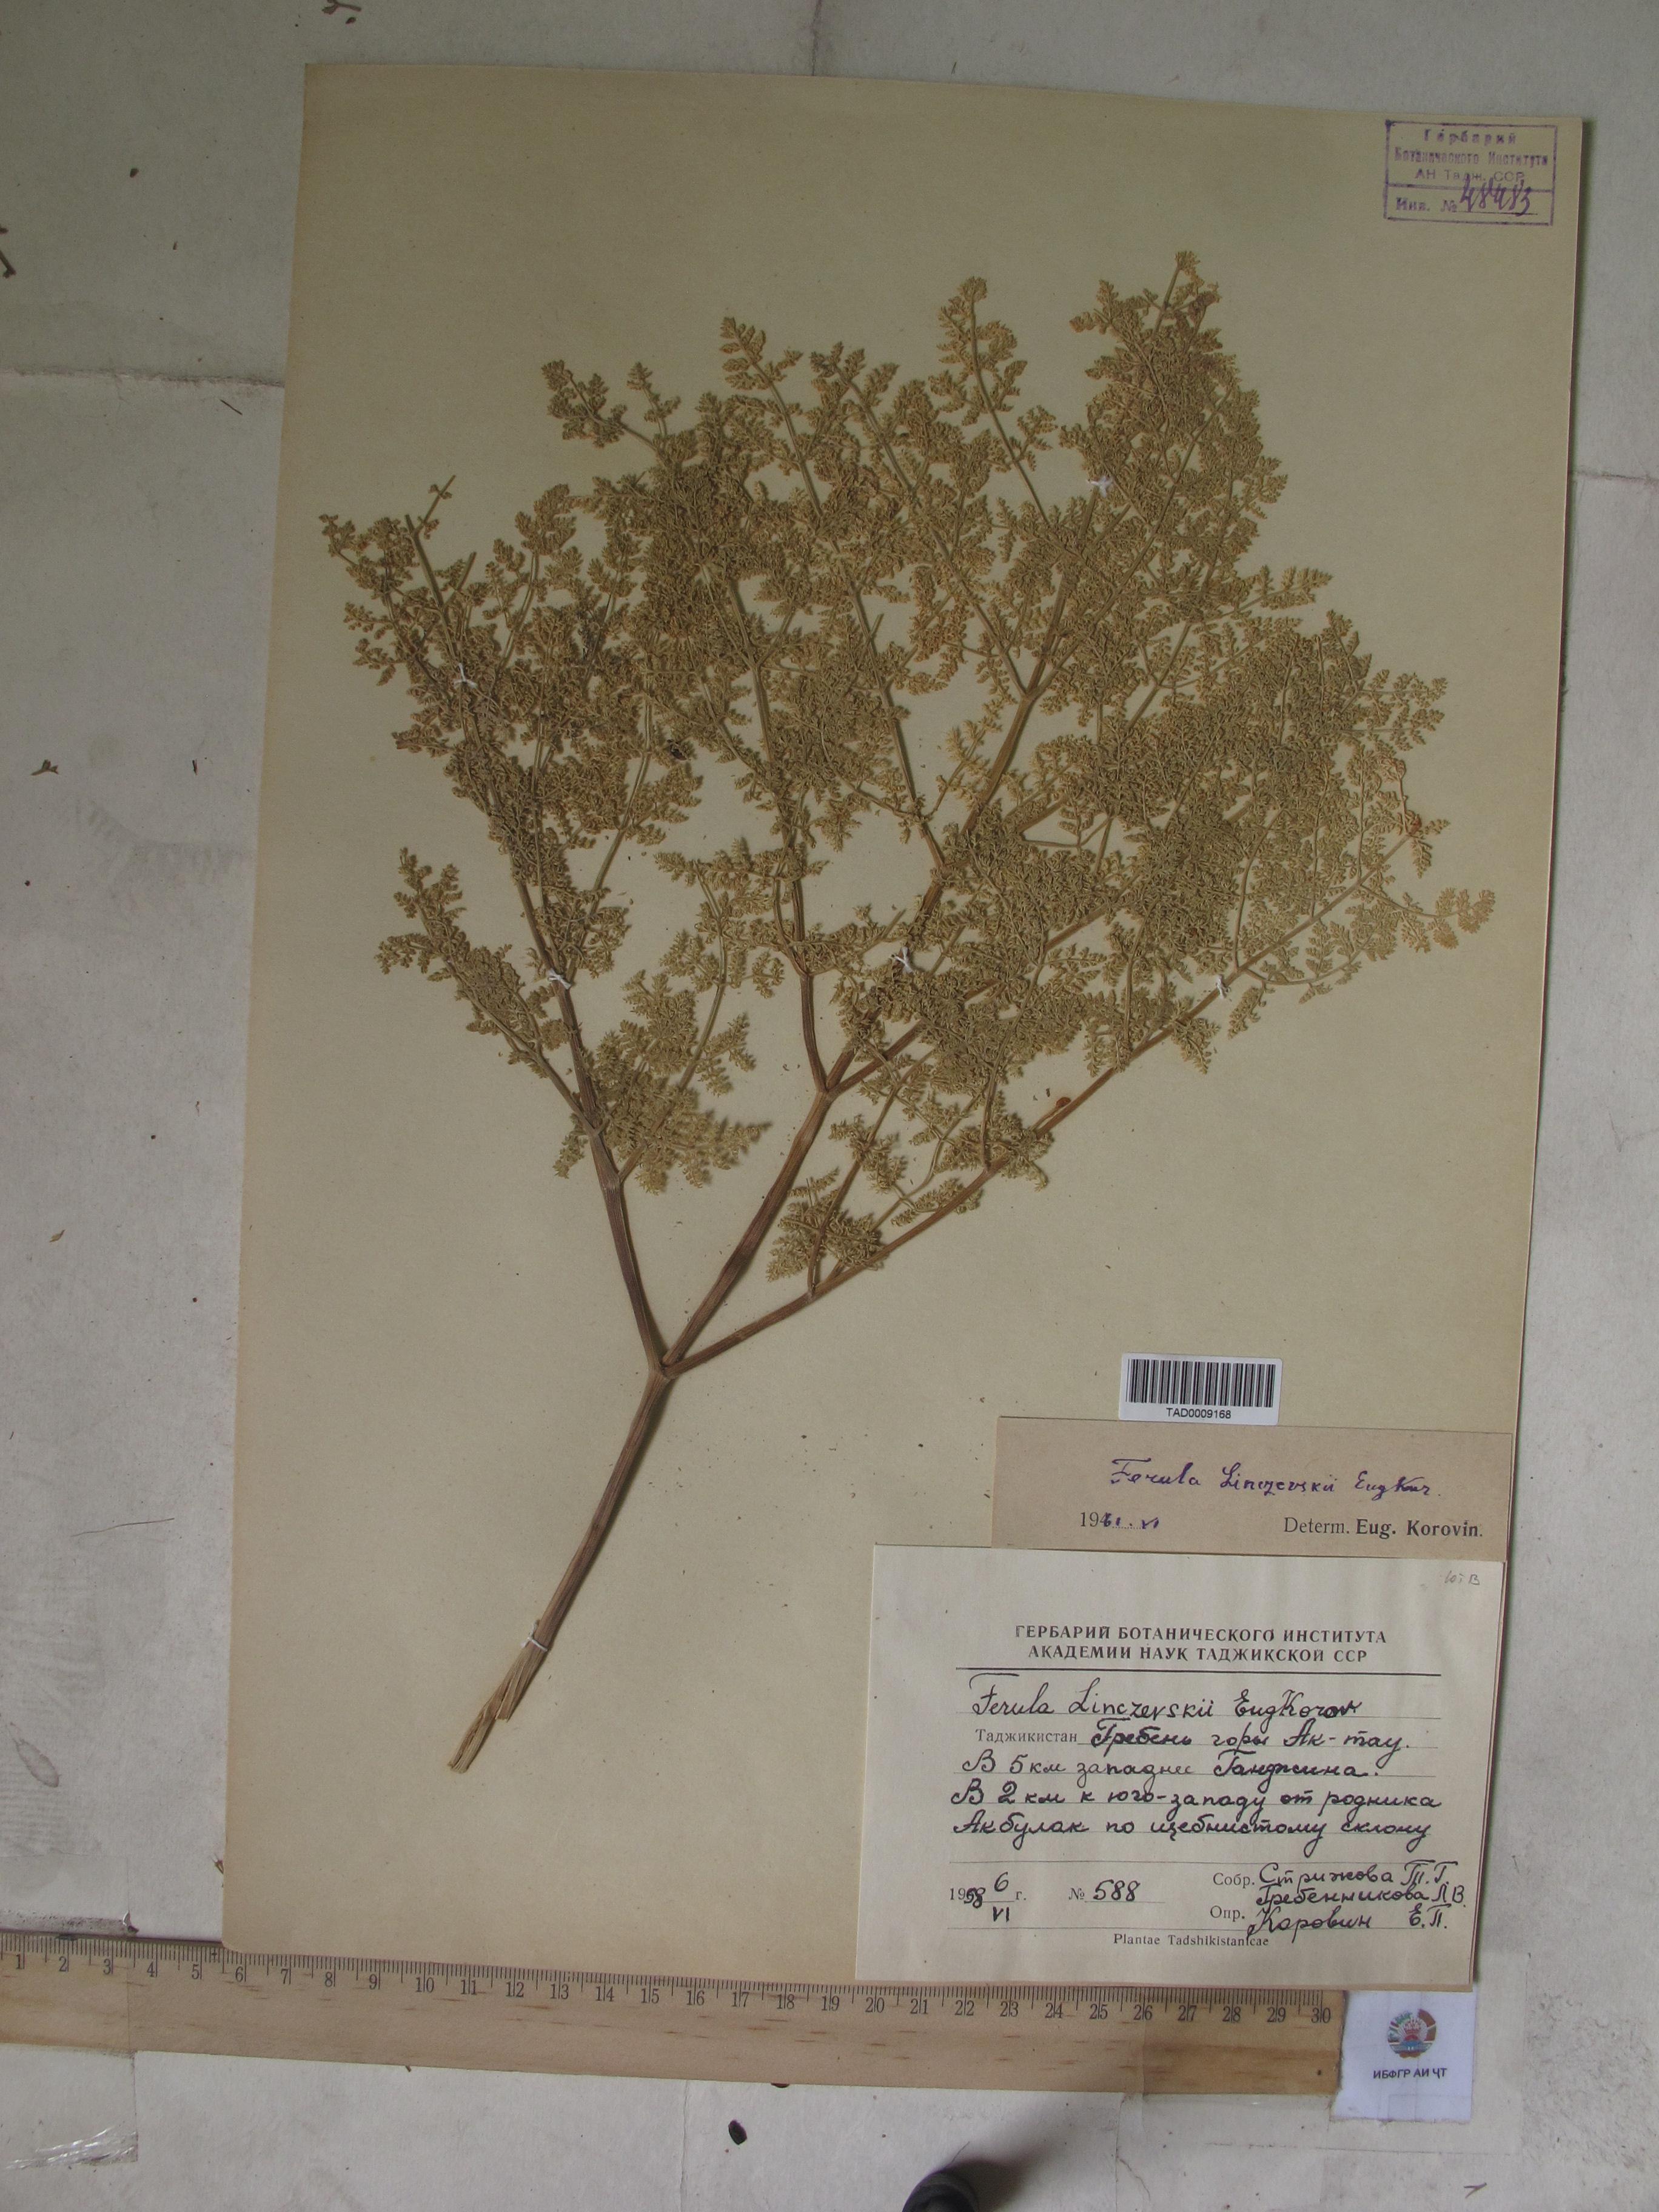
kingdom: Plantae
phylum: Tracheophyta
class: Magnoliopsida
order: Apiales
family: Apiaceae
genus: Ferula
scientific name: Ferula linczevskii
